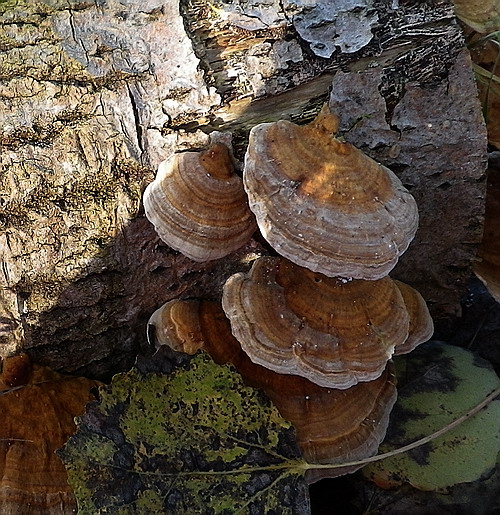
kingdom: Fungi
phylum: Basidiomycota
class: Agaricomycetes
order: Polyporales
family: Polyporaceae
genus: Trametes
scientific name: Trametes ochracea
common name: bæltet læderporesvamp
